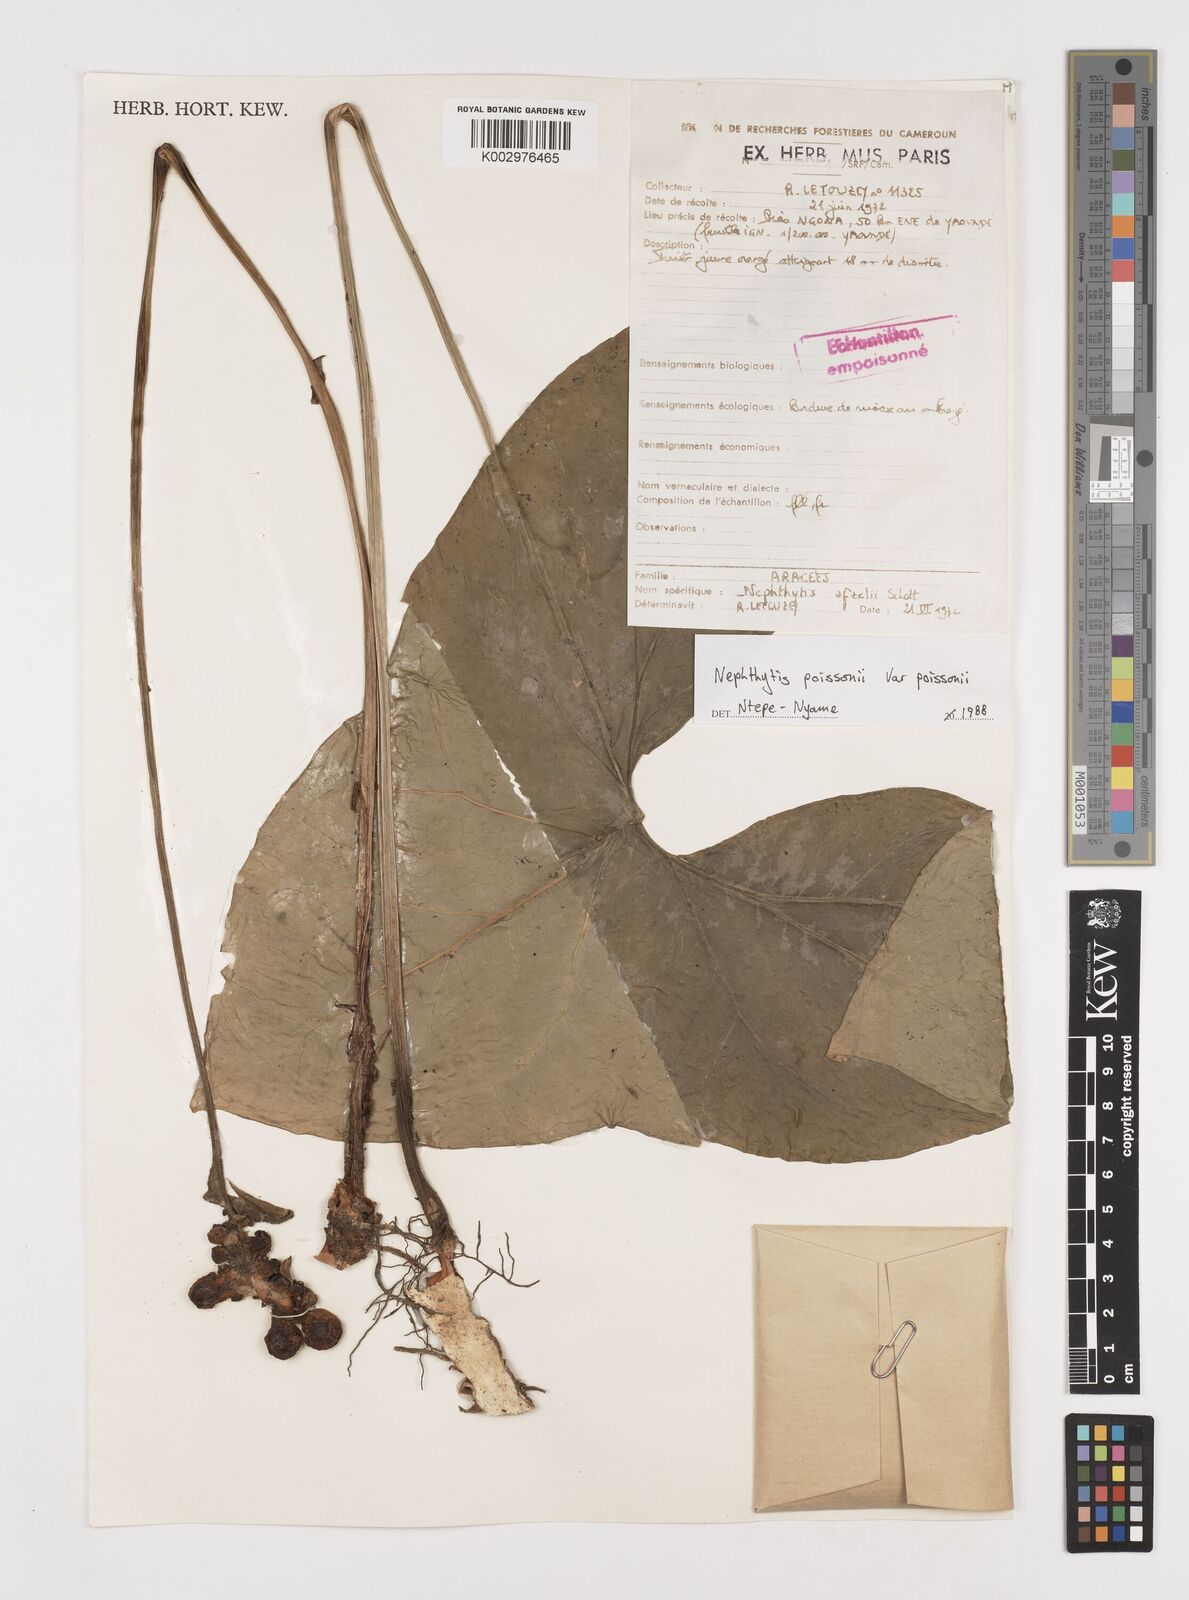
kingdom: Plantae
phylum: Tracheophyta
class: Liliopsida
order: Alismatales
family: Araceae
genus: Nephthytis
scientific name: Nephthytis poissonii
